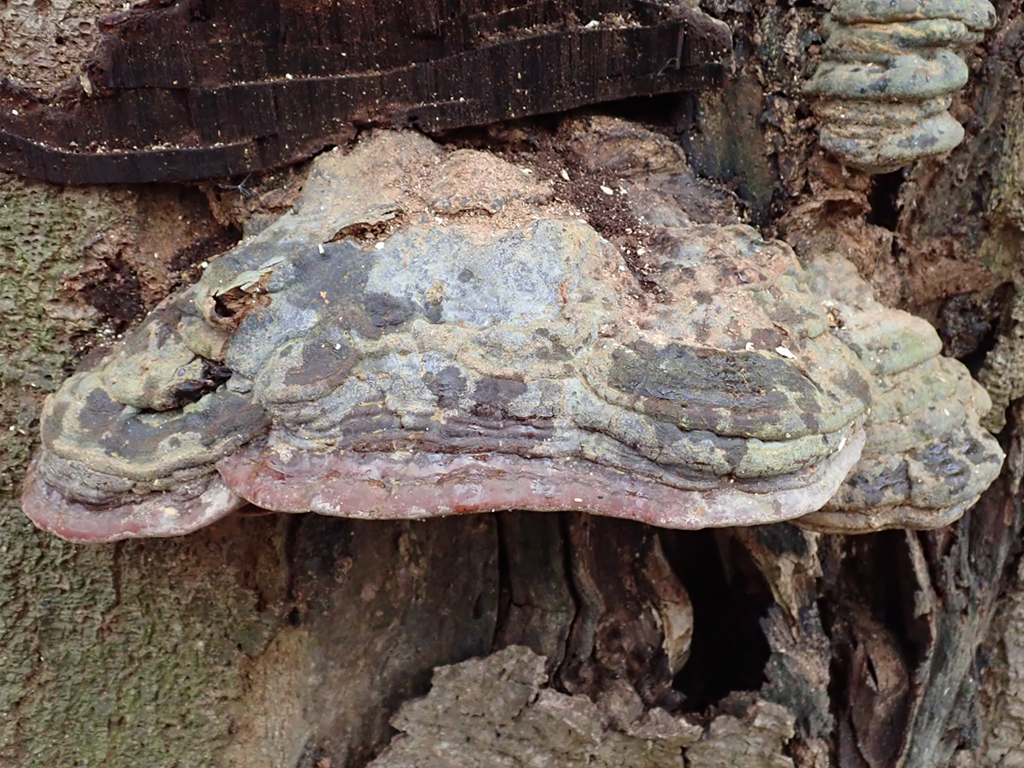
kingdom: Fungi
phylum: Basidiomycota
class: Agaricomycetes
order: Polyporales
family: Polyporaceae
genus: Ganoderma
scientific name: Ganoderma pfeifferi
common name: kobberrød lakporesvamp
